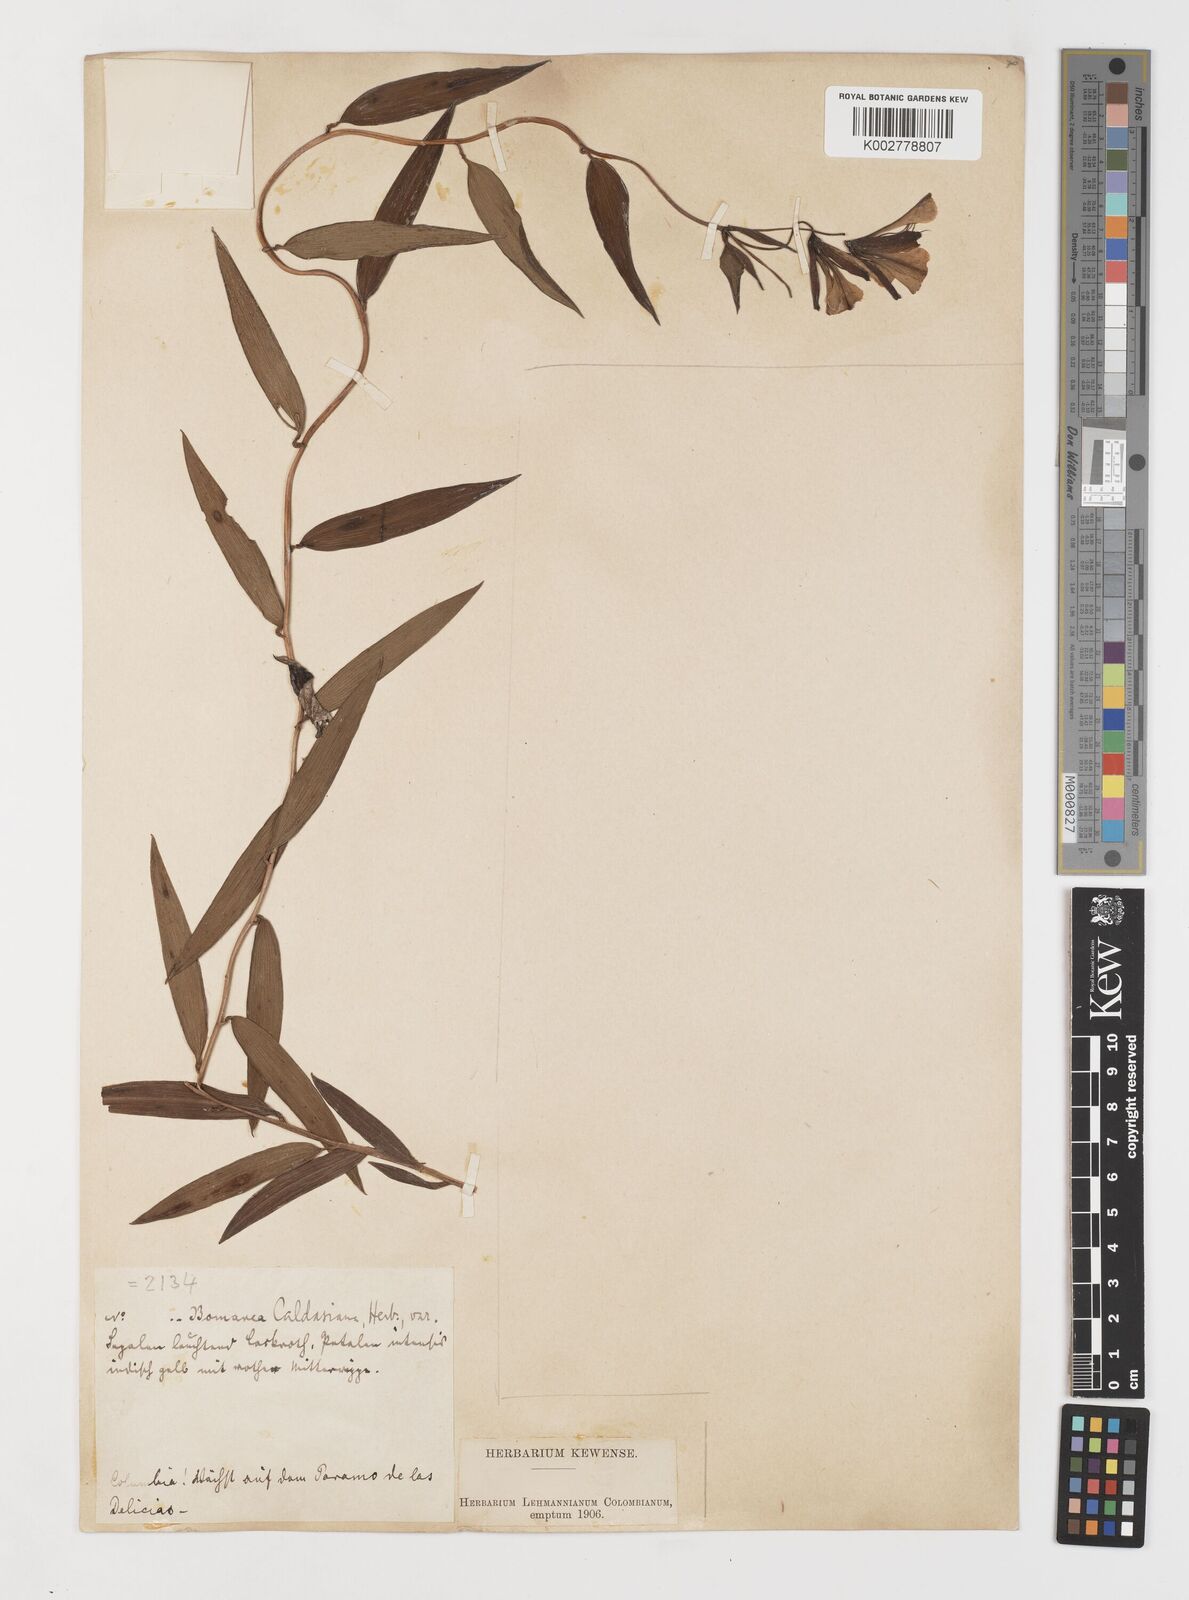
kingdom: Plantae
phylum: Tracheophyta
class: Liliopsida
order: Liliales
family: Alstroemeriaceae
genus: Bomarea
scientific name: Bomarea hirsuta
